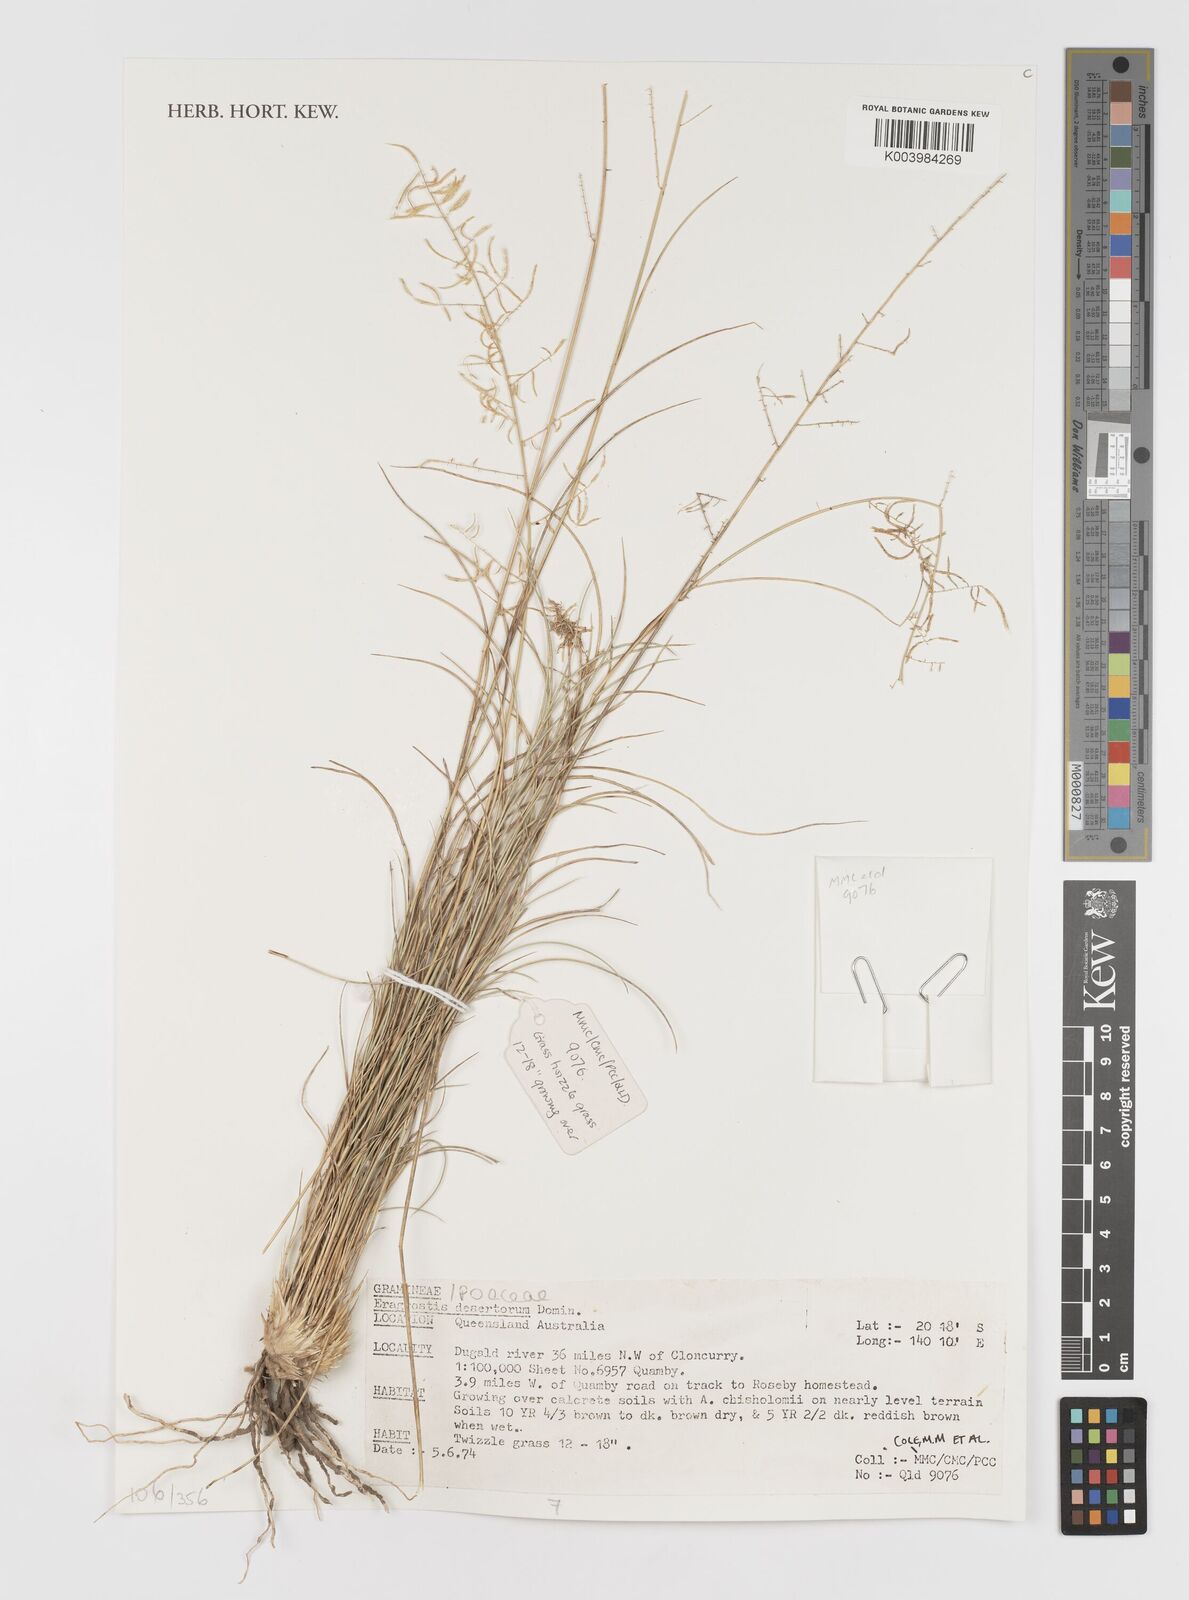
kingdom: Plantae
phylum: Tracheophyta
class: Liliopsida
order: Poales
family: Poaceae
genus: Eragrostis
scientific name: Eragrostis desertorum
